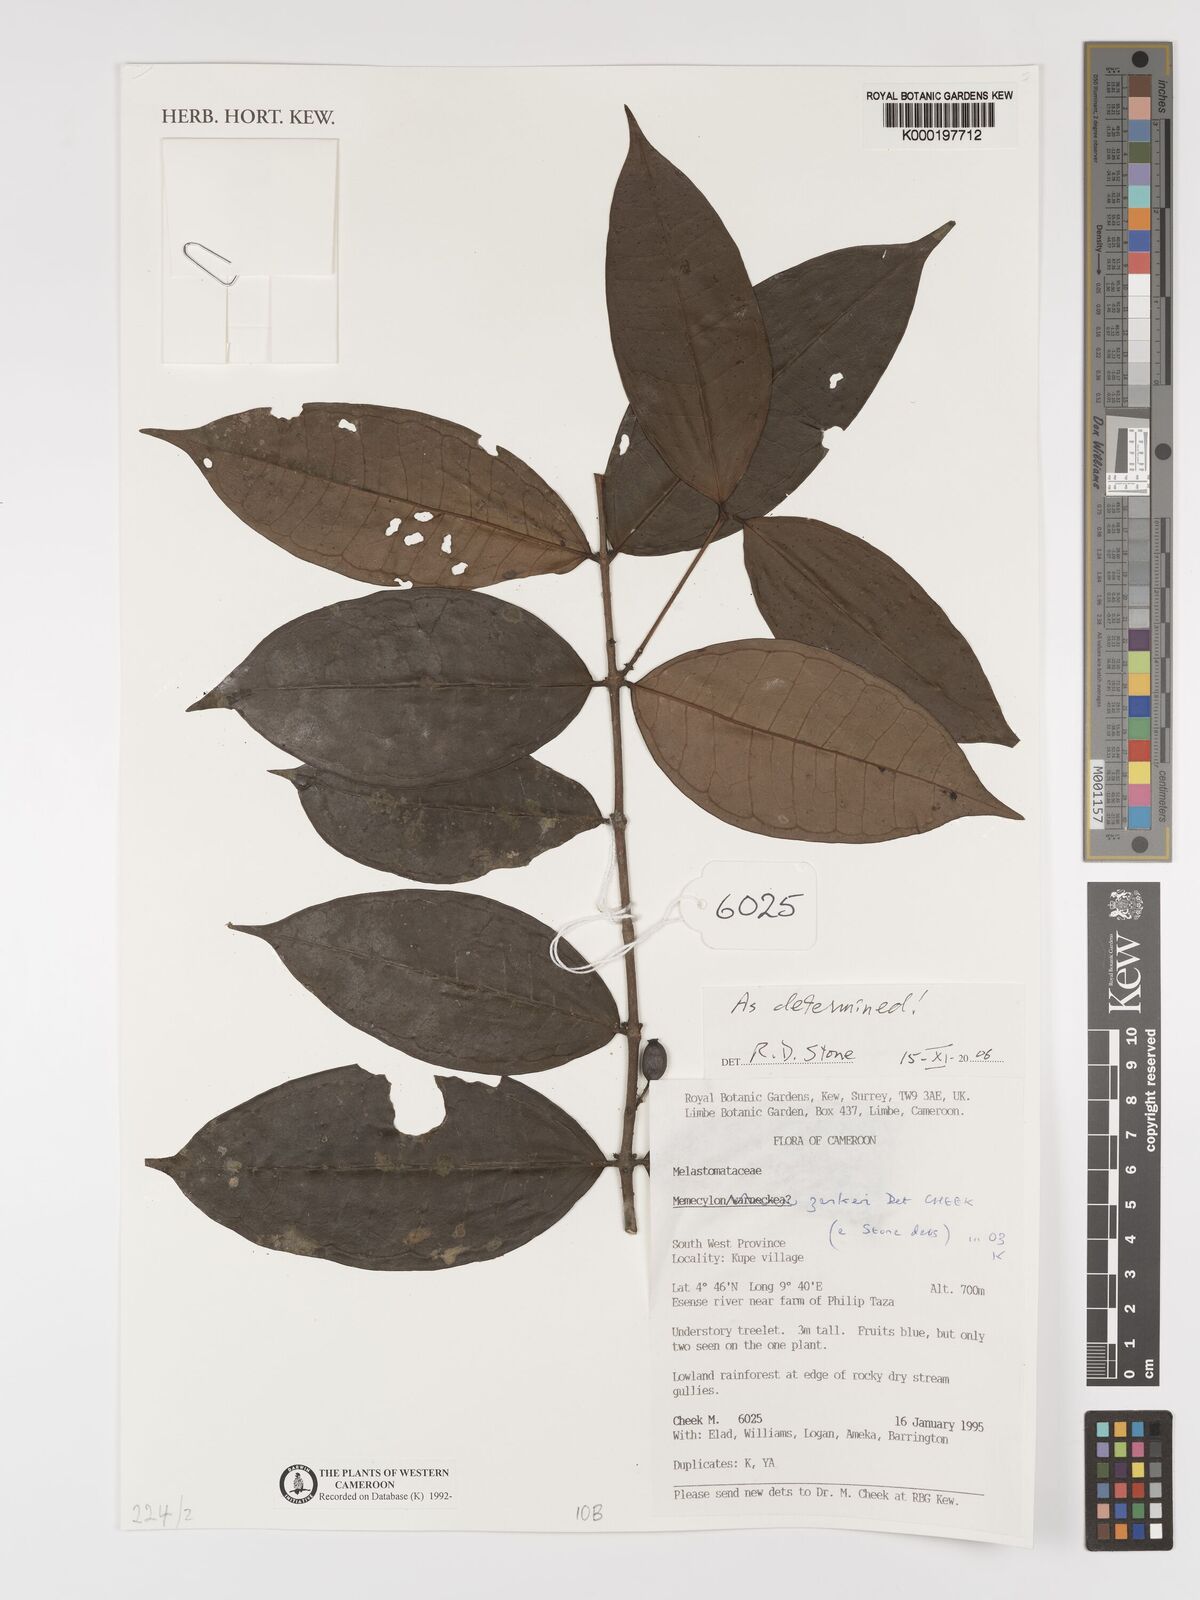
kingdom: Plantae
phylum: Tracheophyta
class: Magnoliopsida
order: Myrtales
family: Melastomataceae
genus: Memecylon
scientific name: Memecylon zenkeri
